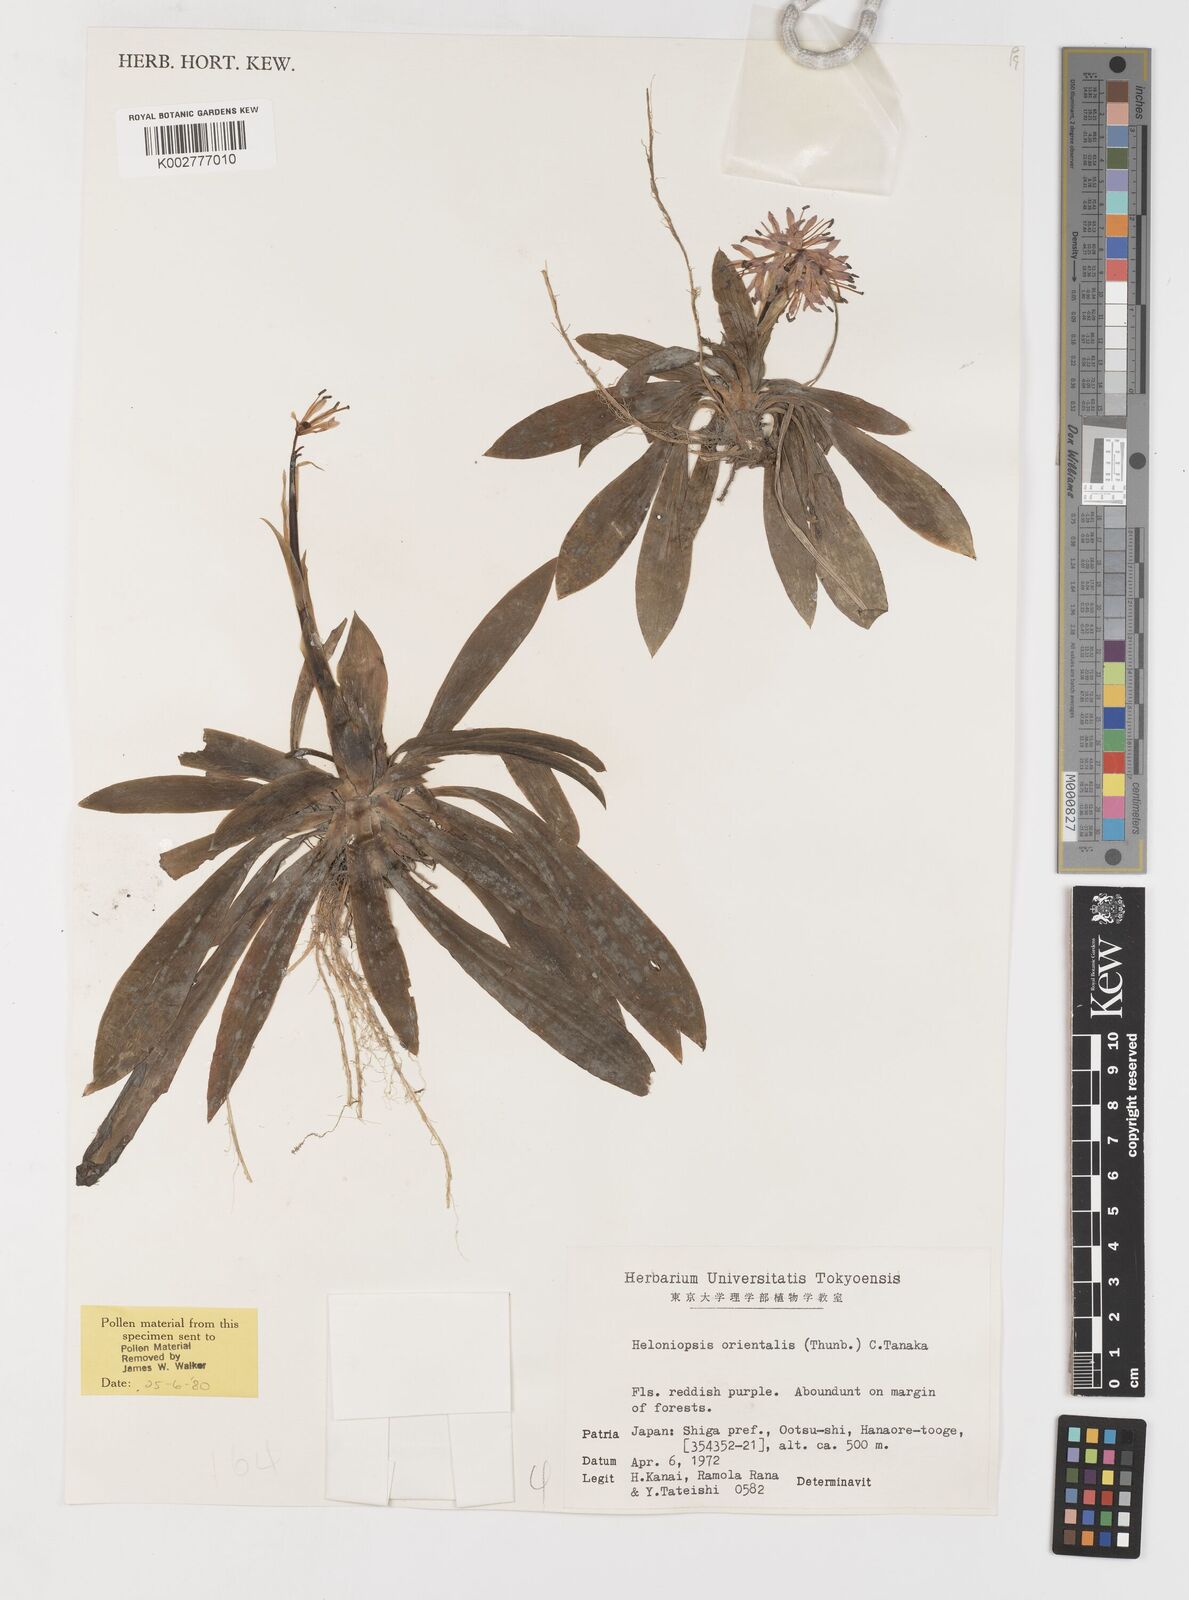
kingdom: Plantae
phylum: Tracheophyta
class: Liliopsida
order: Liliales
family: Melanthiaceae
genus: Helonias
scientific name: Helonias orientalis
